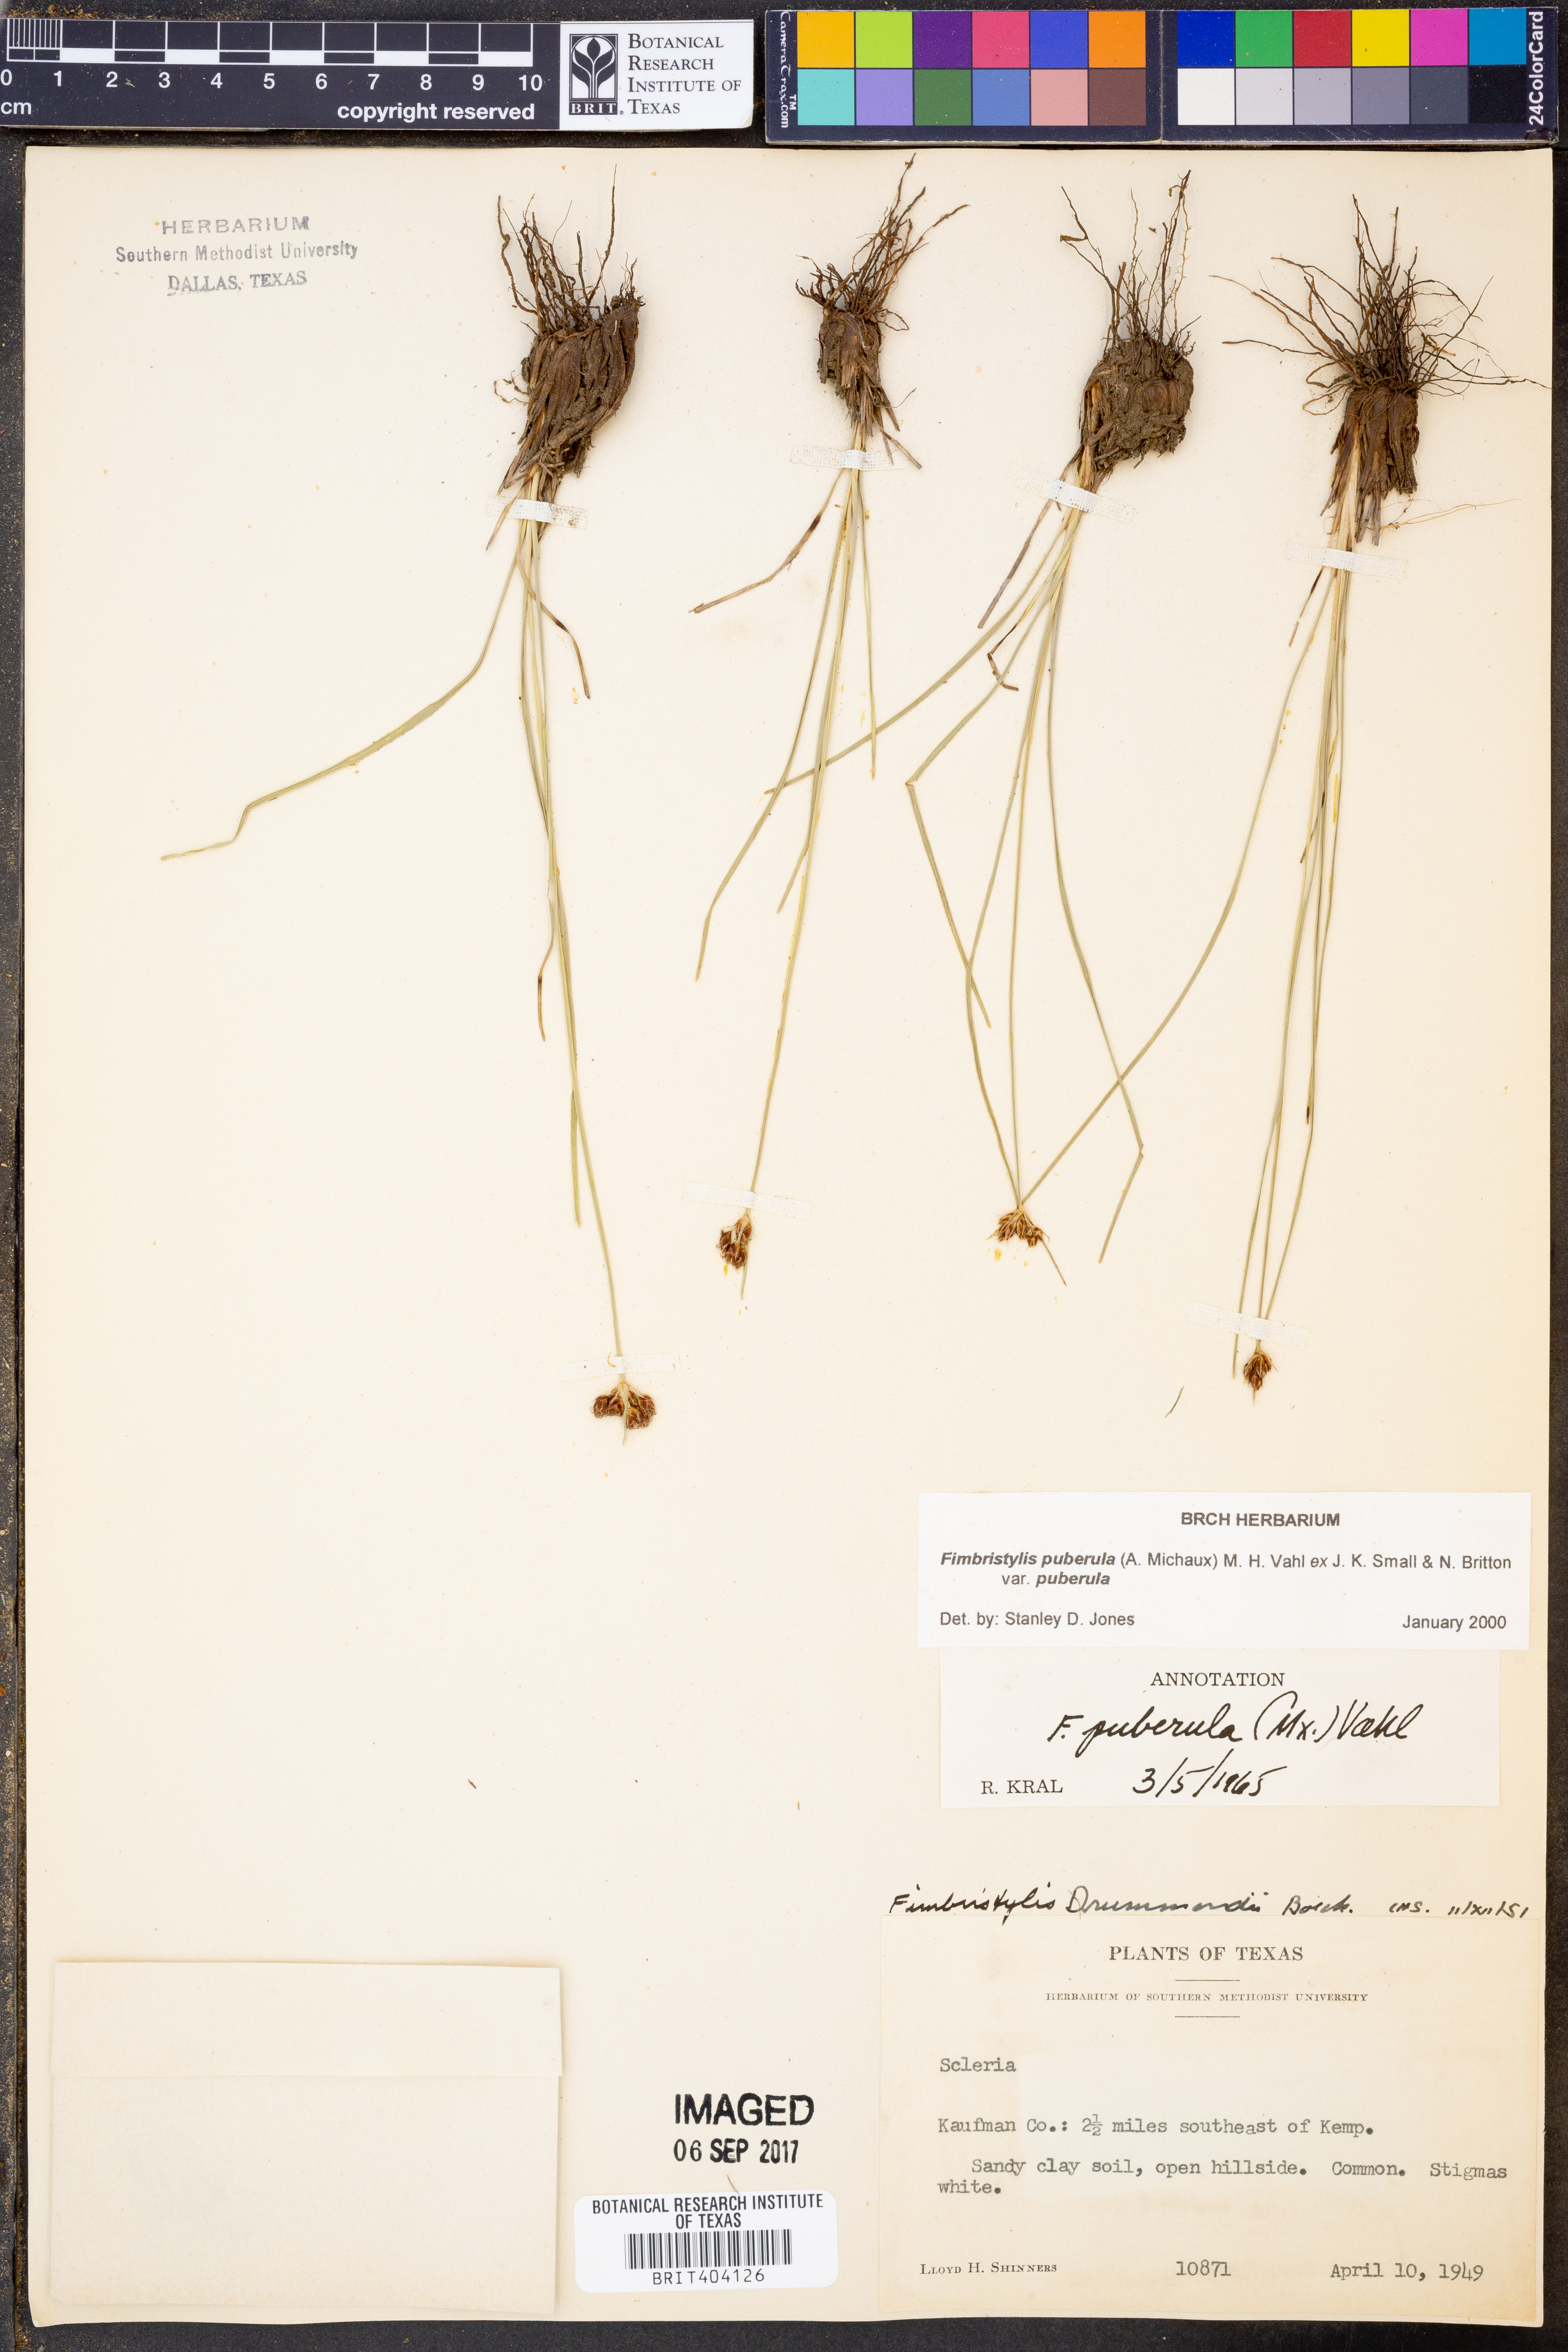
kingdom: Plantae
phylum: Tracheophyta
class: Liliopsida
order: Poales
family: Cyperaceae
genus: Fimbristylis
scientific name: Fimbristylis puberula
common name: Hairy fimbristylis
